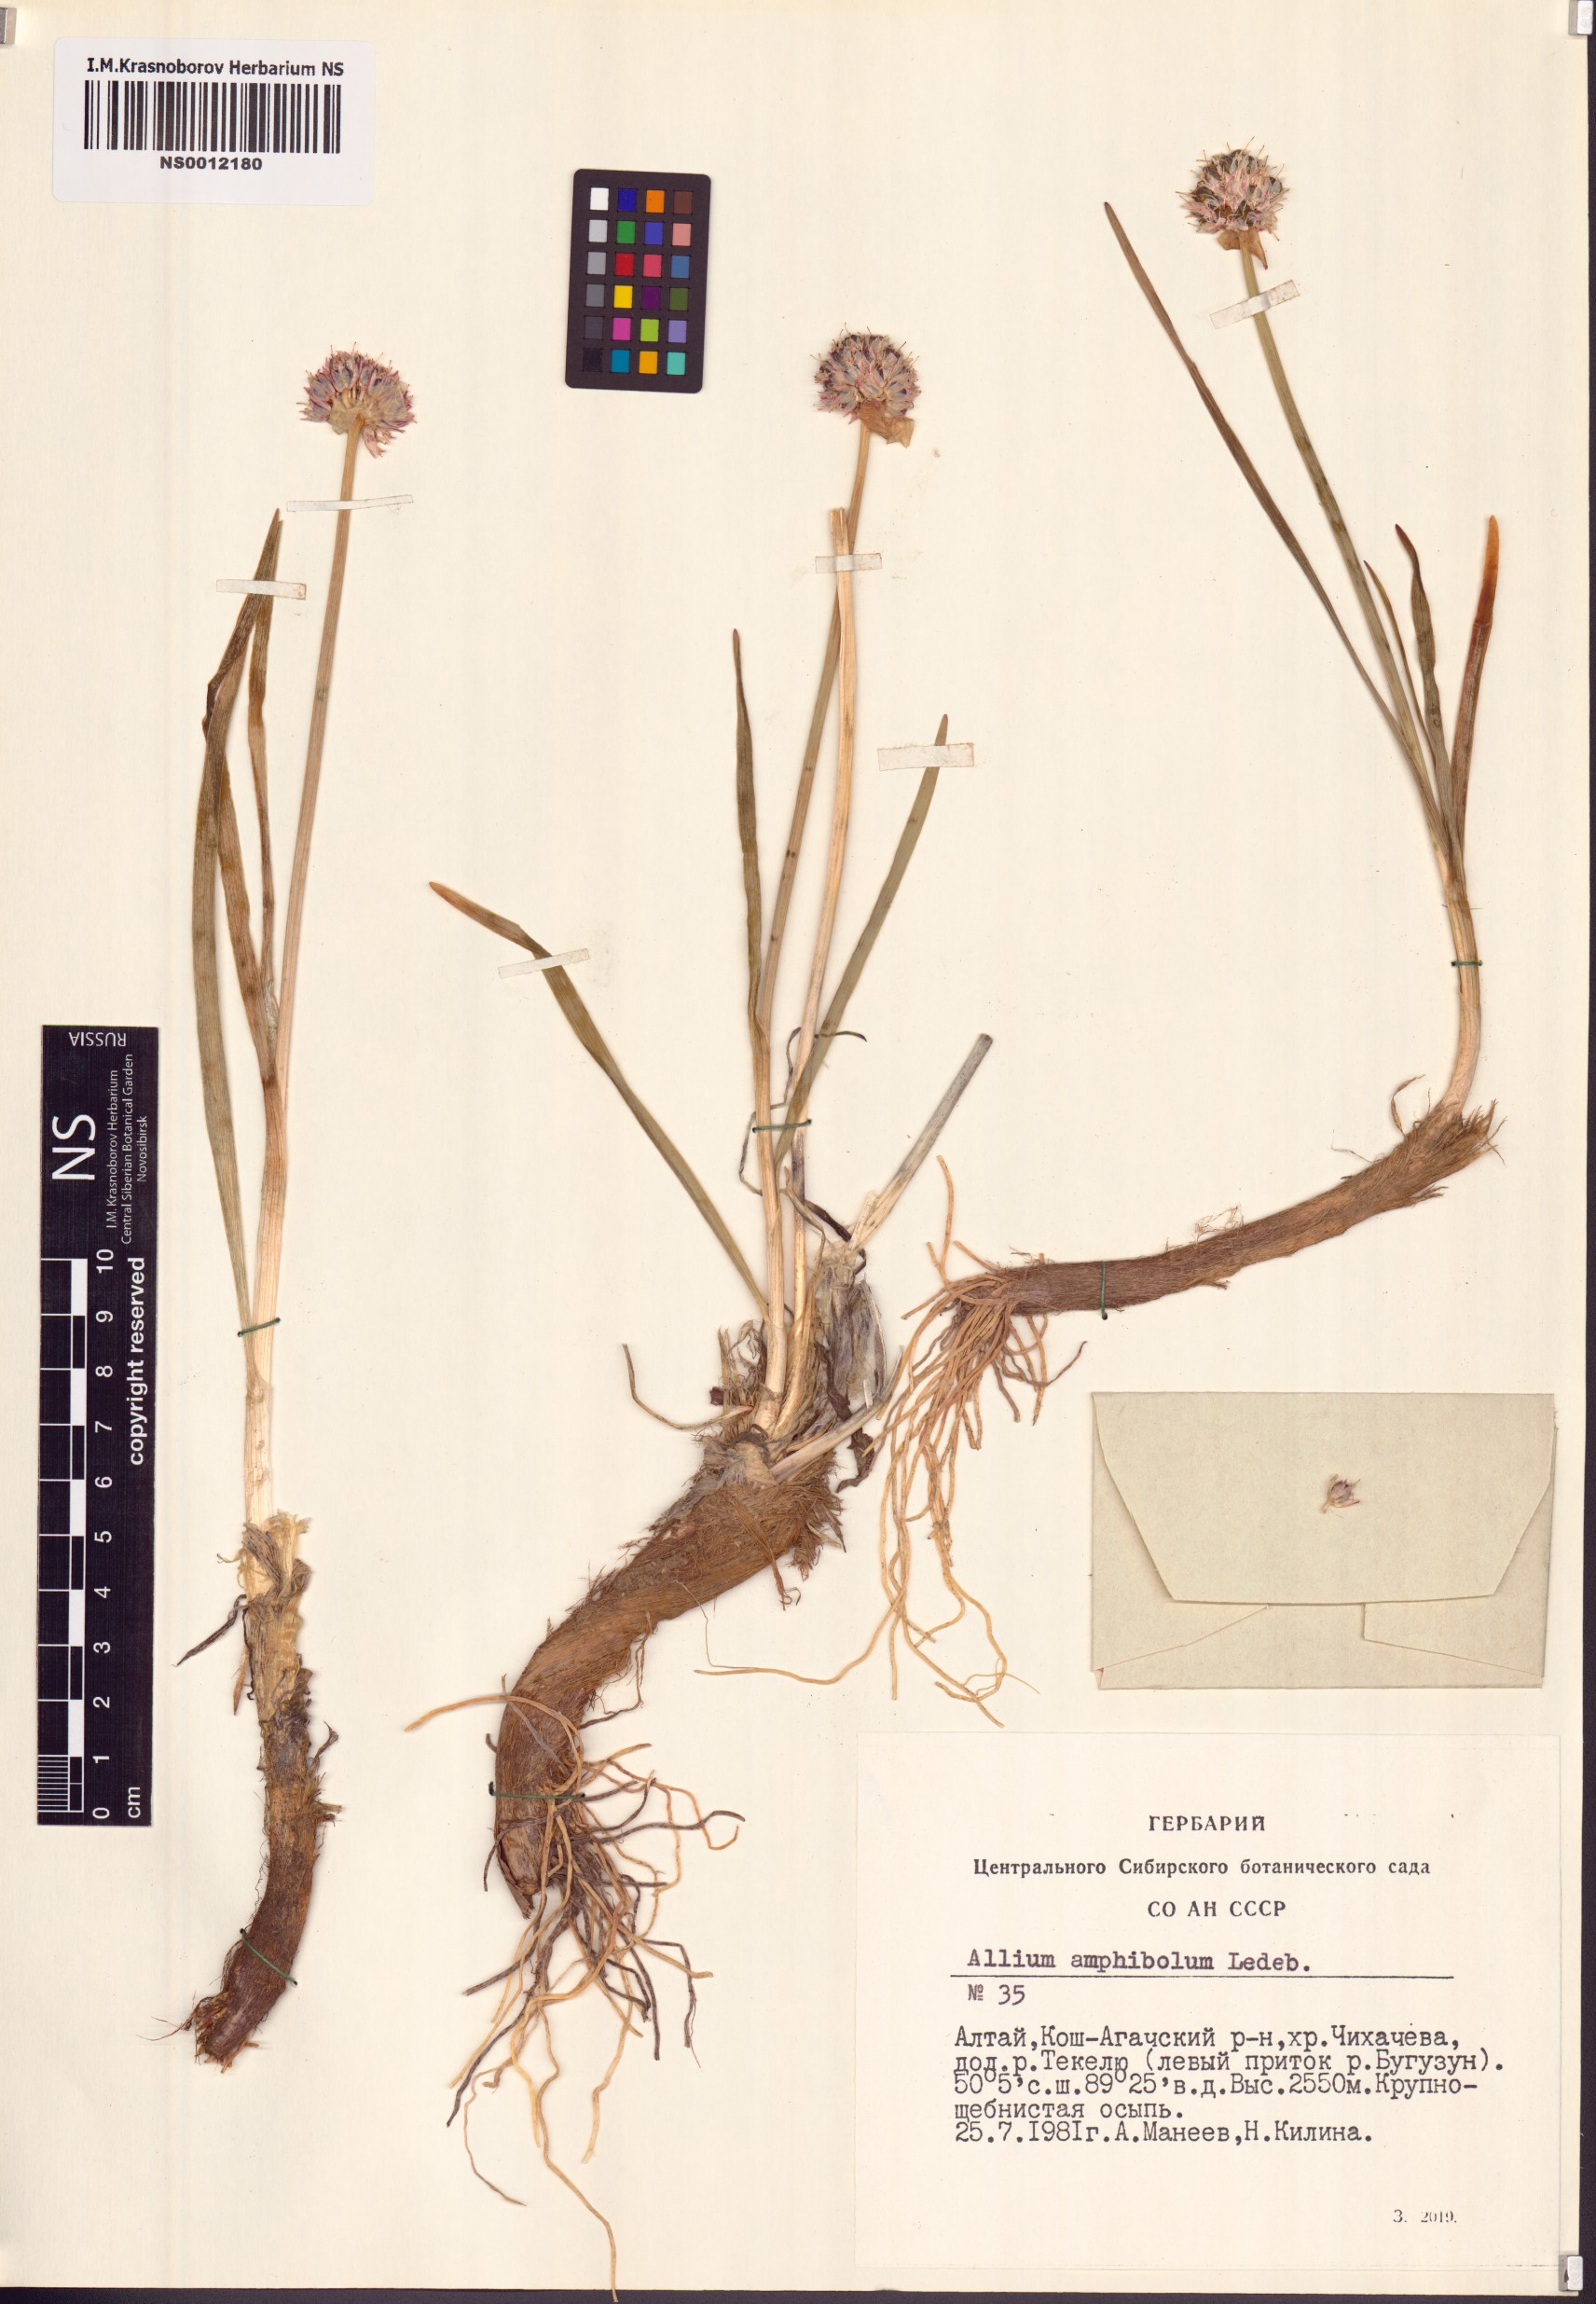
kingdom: Plantae
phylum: Tracheophyta
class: Liliopsida
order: Asparagales
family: Amaryllidaceae
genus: Allium
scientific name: Allium amphibolum
